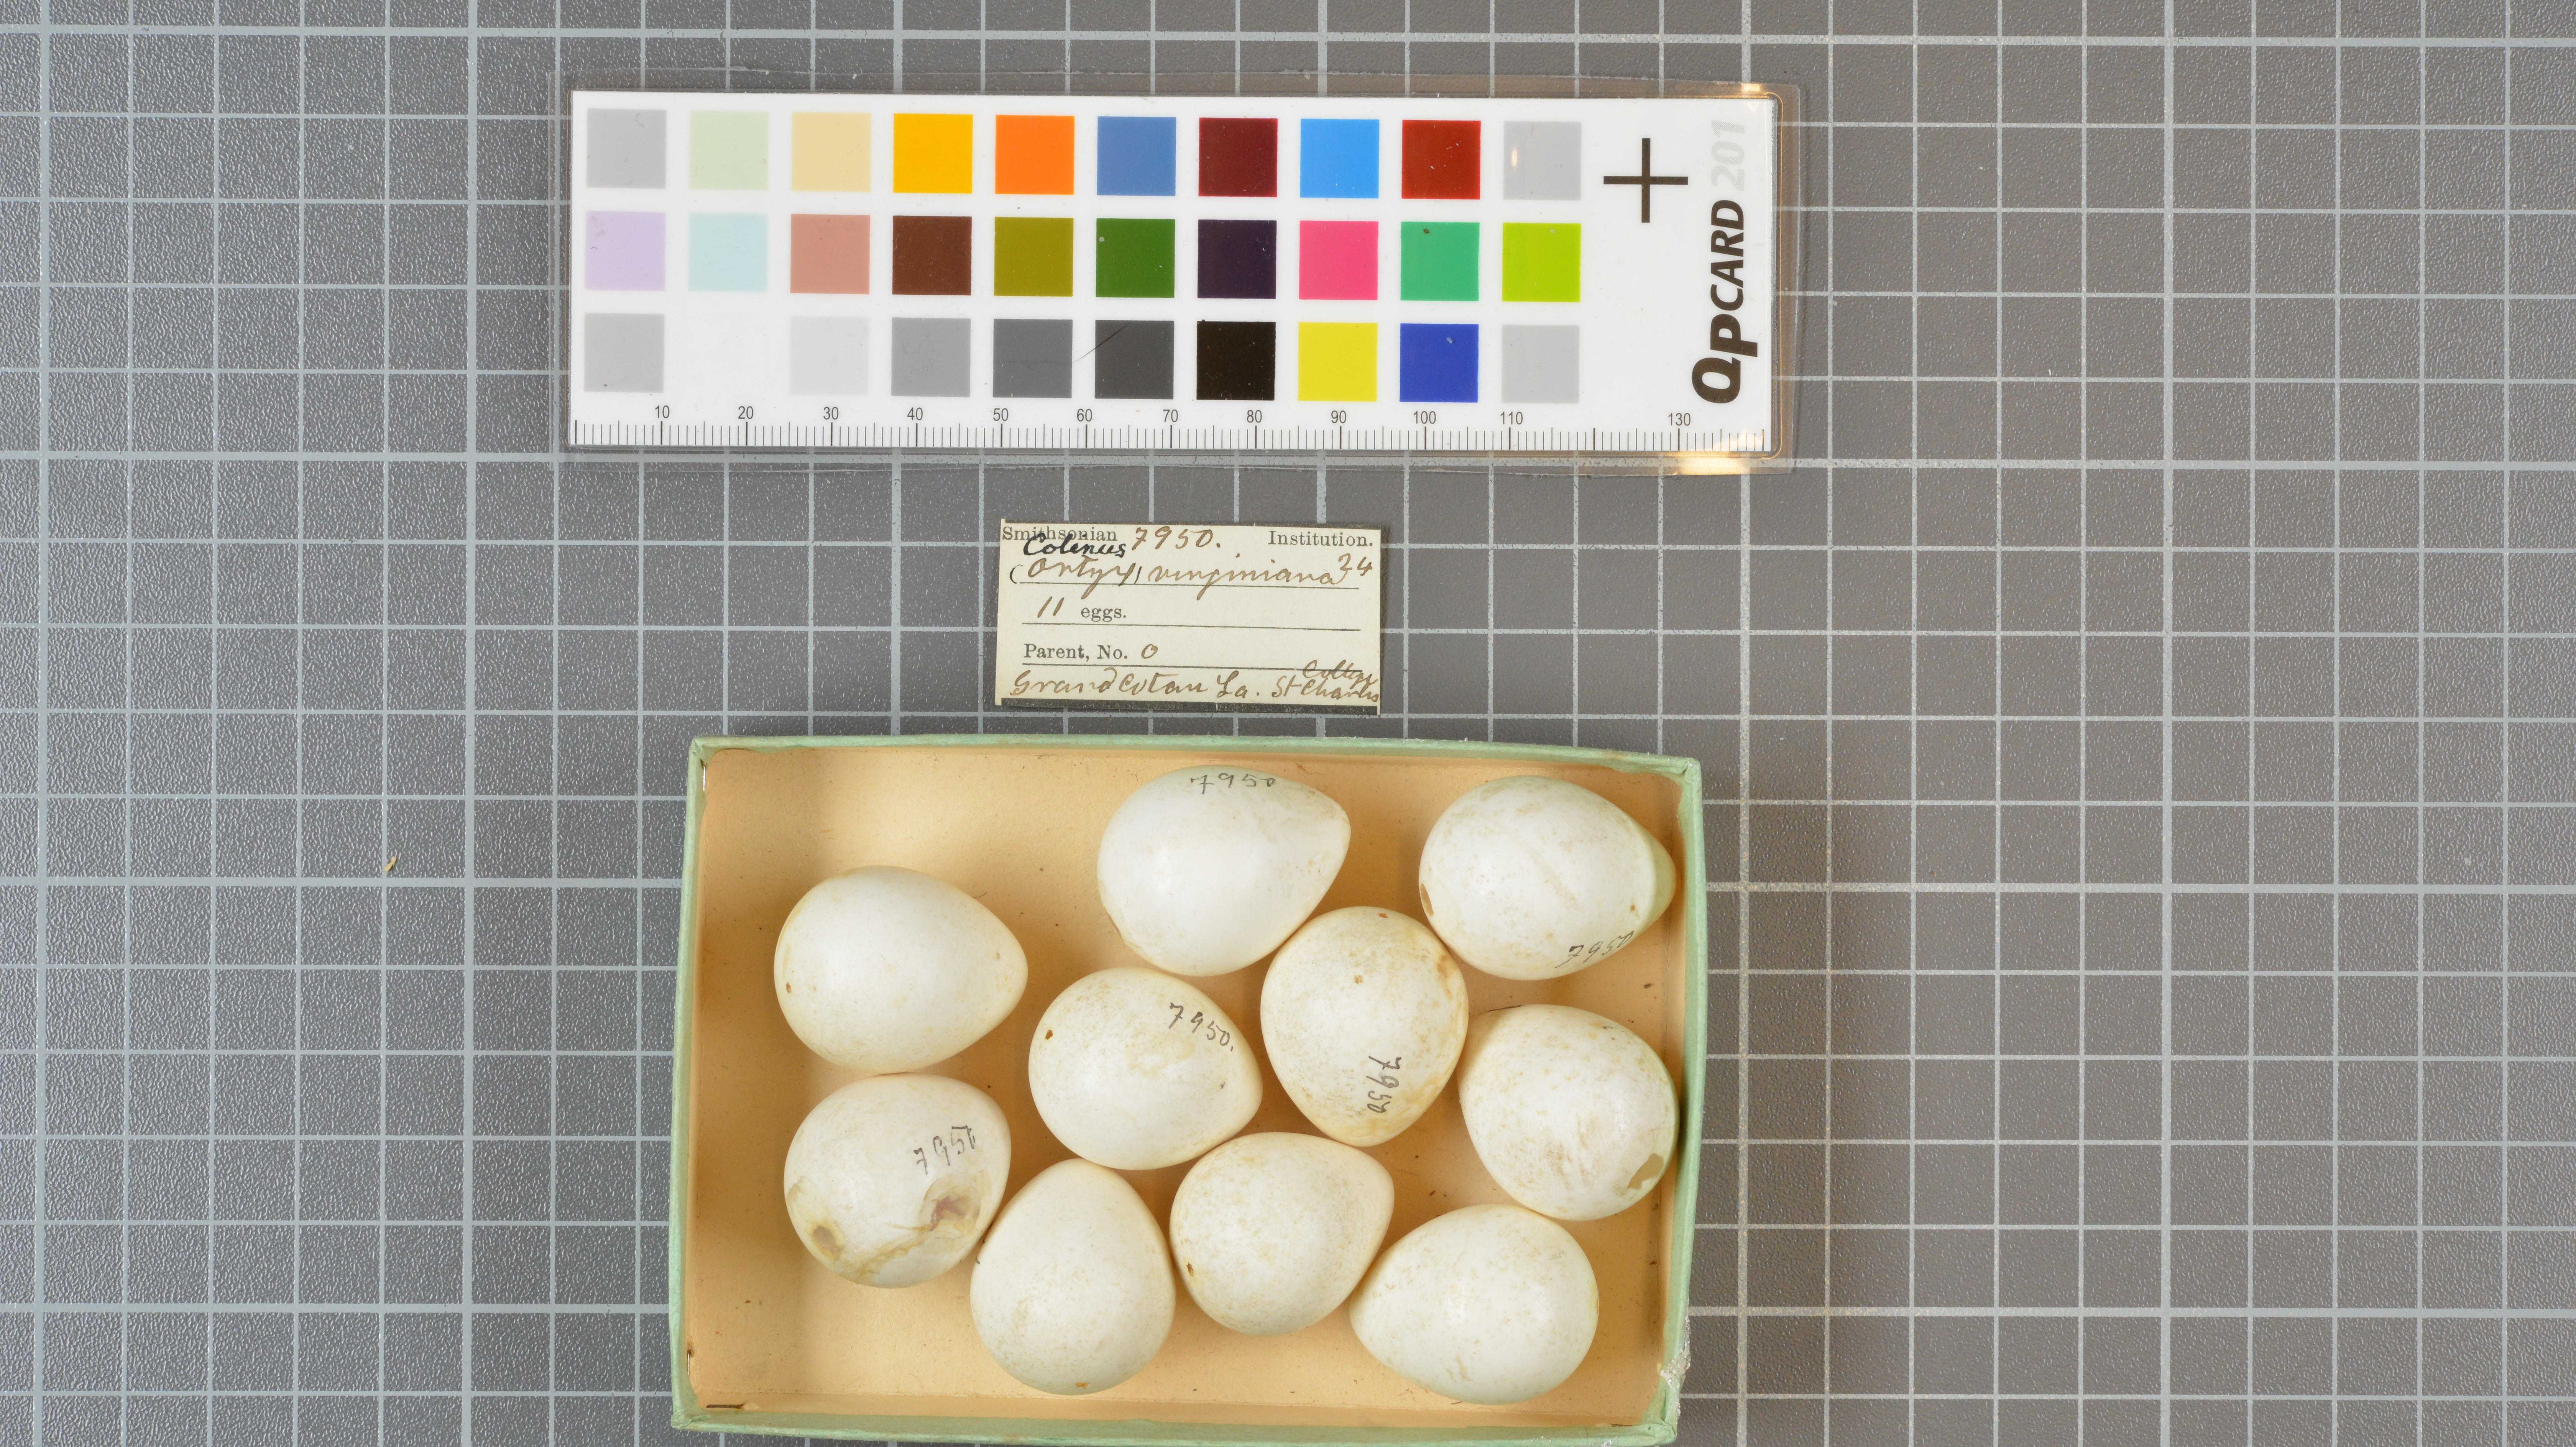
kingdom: Animalia
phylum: Chordata
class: Aves
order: Galliformes
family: Odontophoridae
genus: Colinus
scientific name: Colinus virginianus
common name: Northern bobwhite
